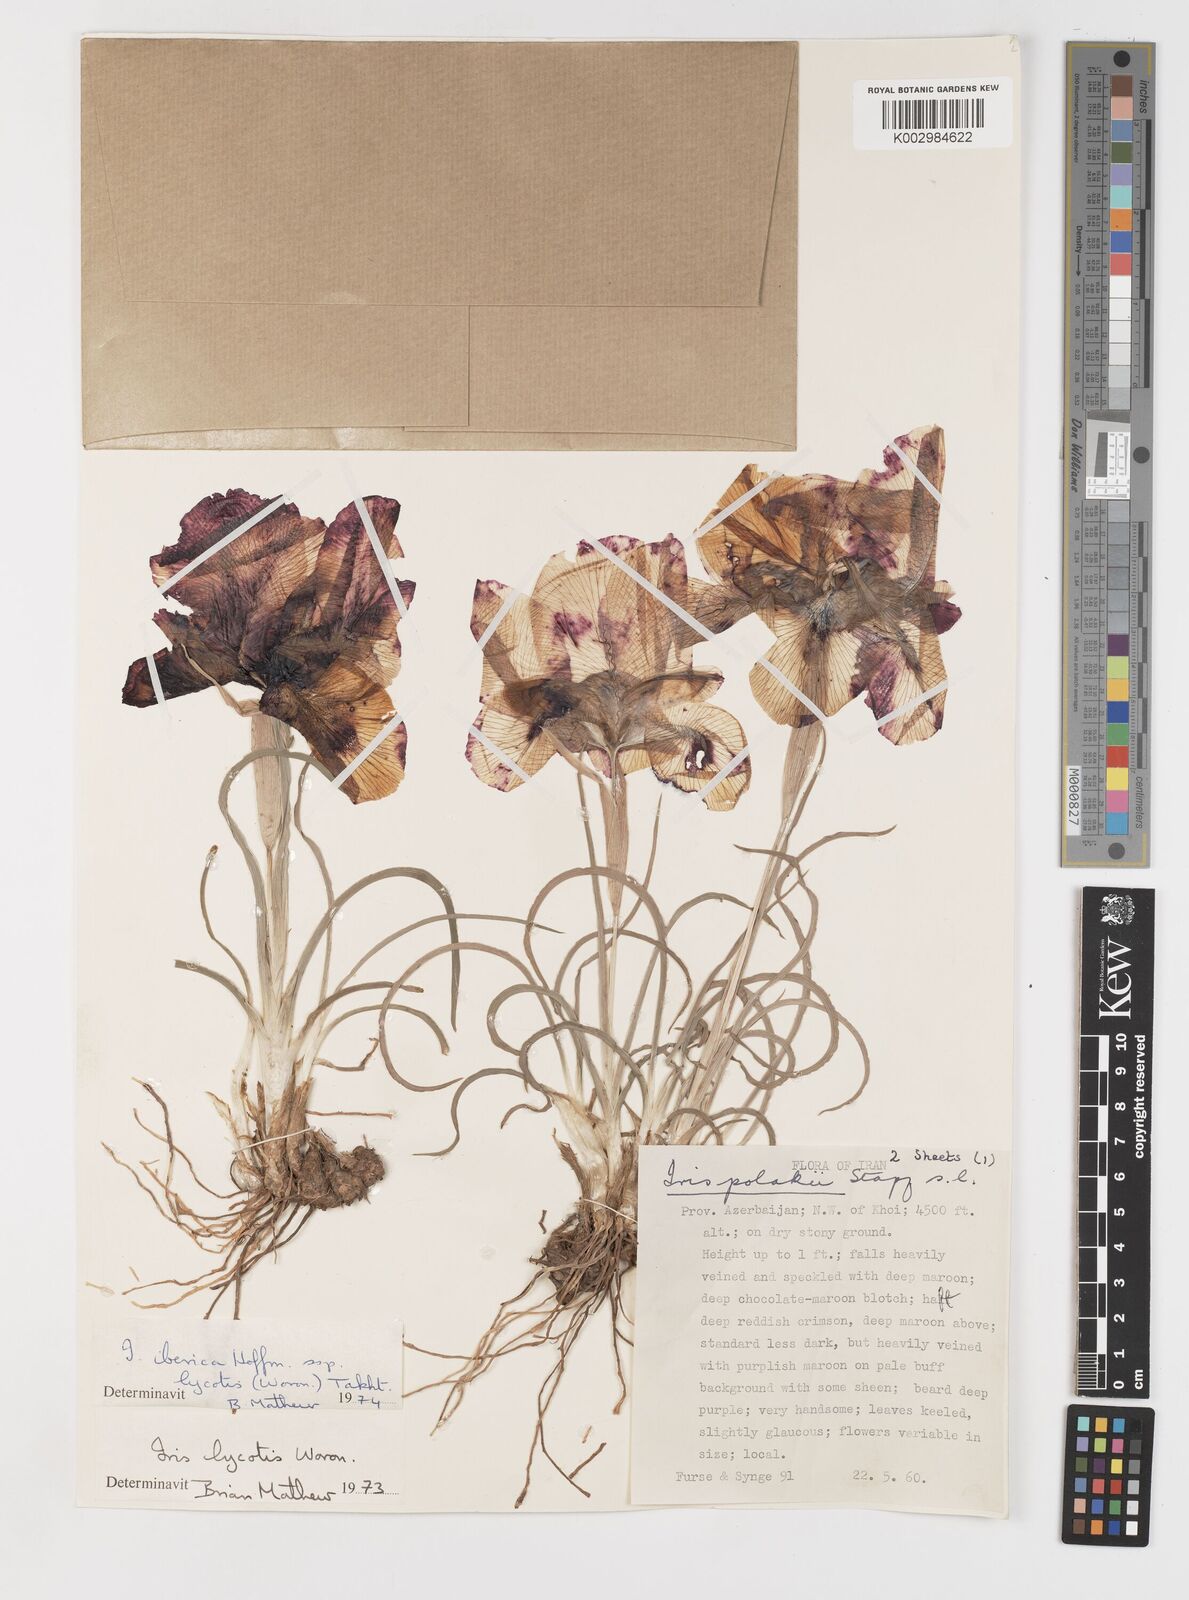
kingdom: Plantae
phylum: Tracheophyta
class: Liliopsida
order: Asparagales
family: Iridaceae
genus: Iris
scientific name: Iris lycotis
